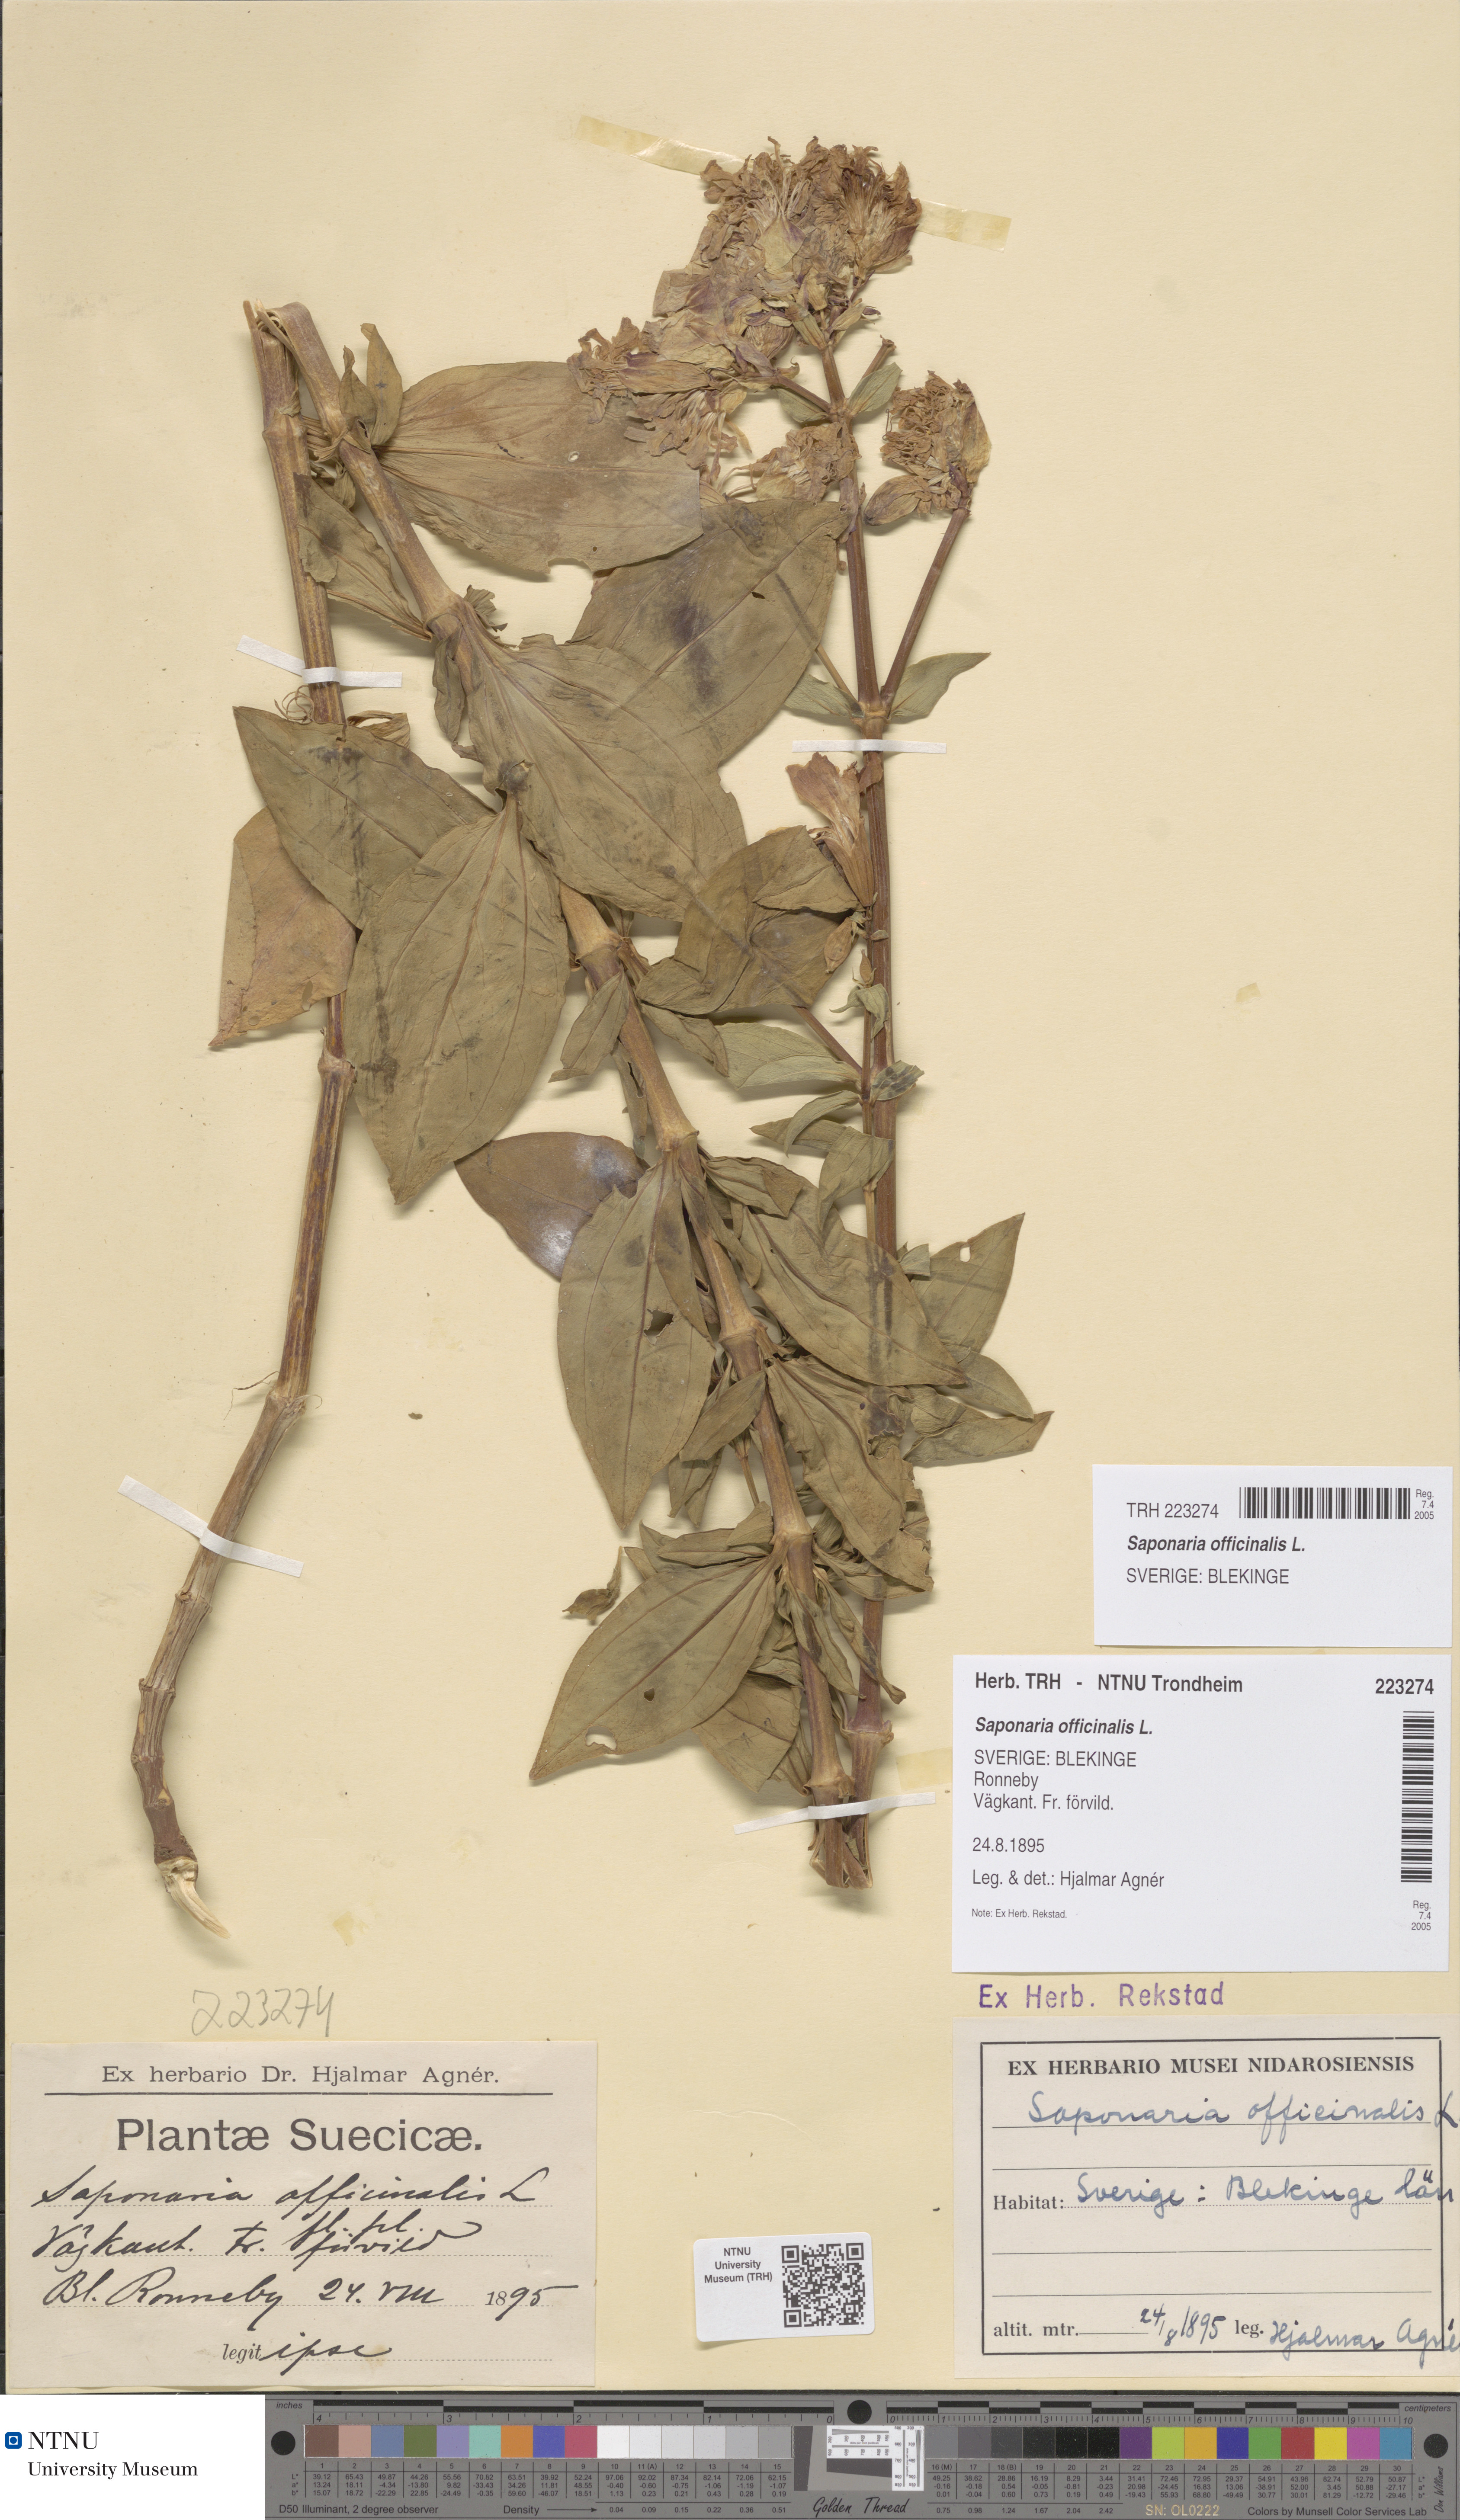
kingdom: Plantae
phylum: Tracheophyta
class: Magnoliopsida
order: Caryophyllales
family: Caryophyllaceae
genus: Saponaria
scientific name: Saponaria officinalis
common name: Soapwort
